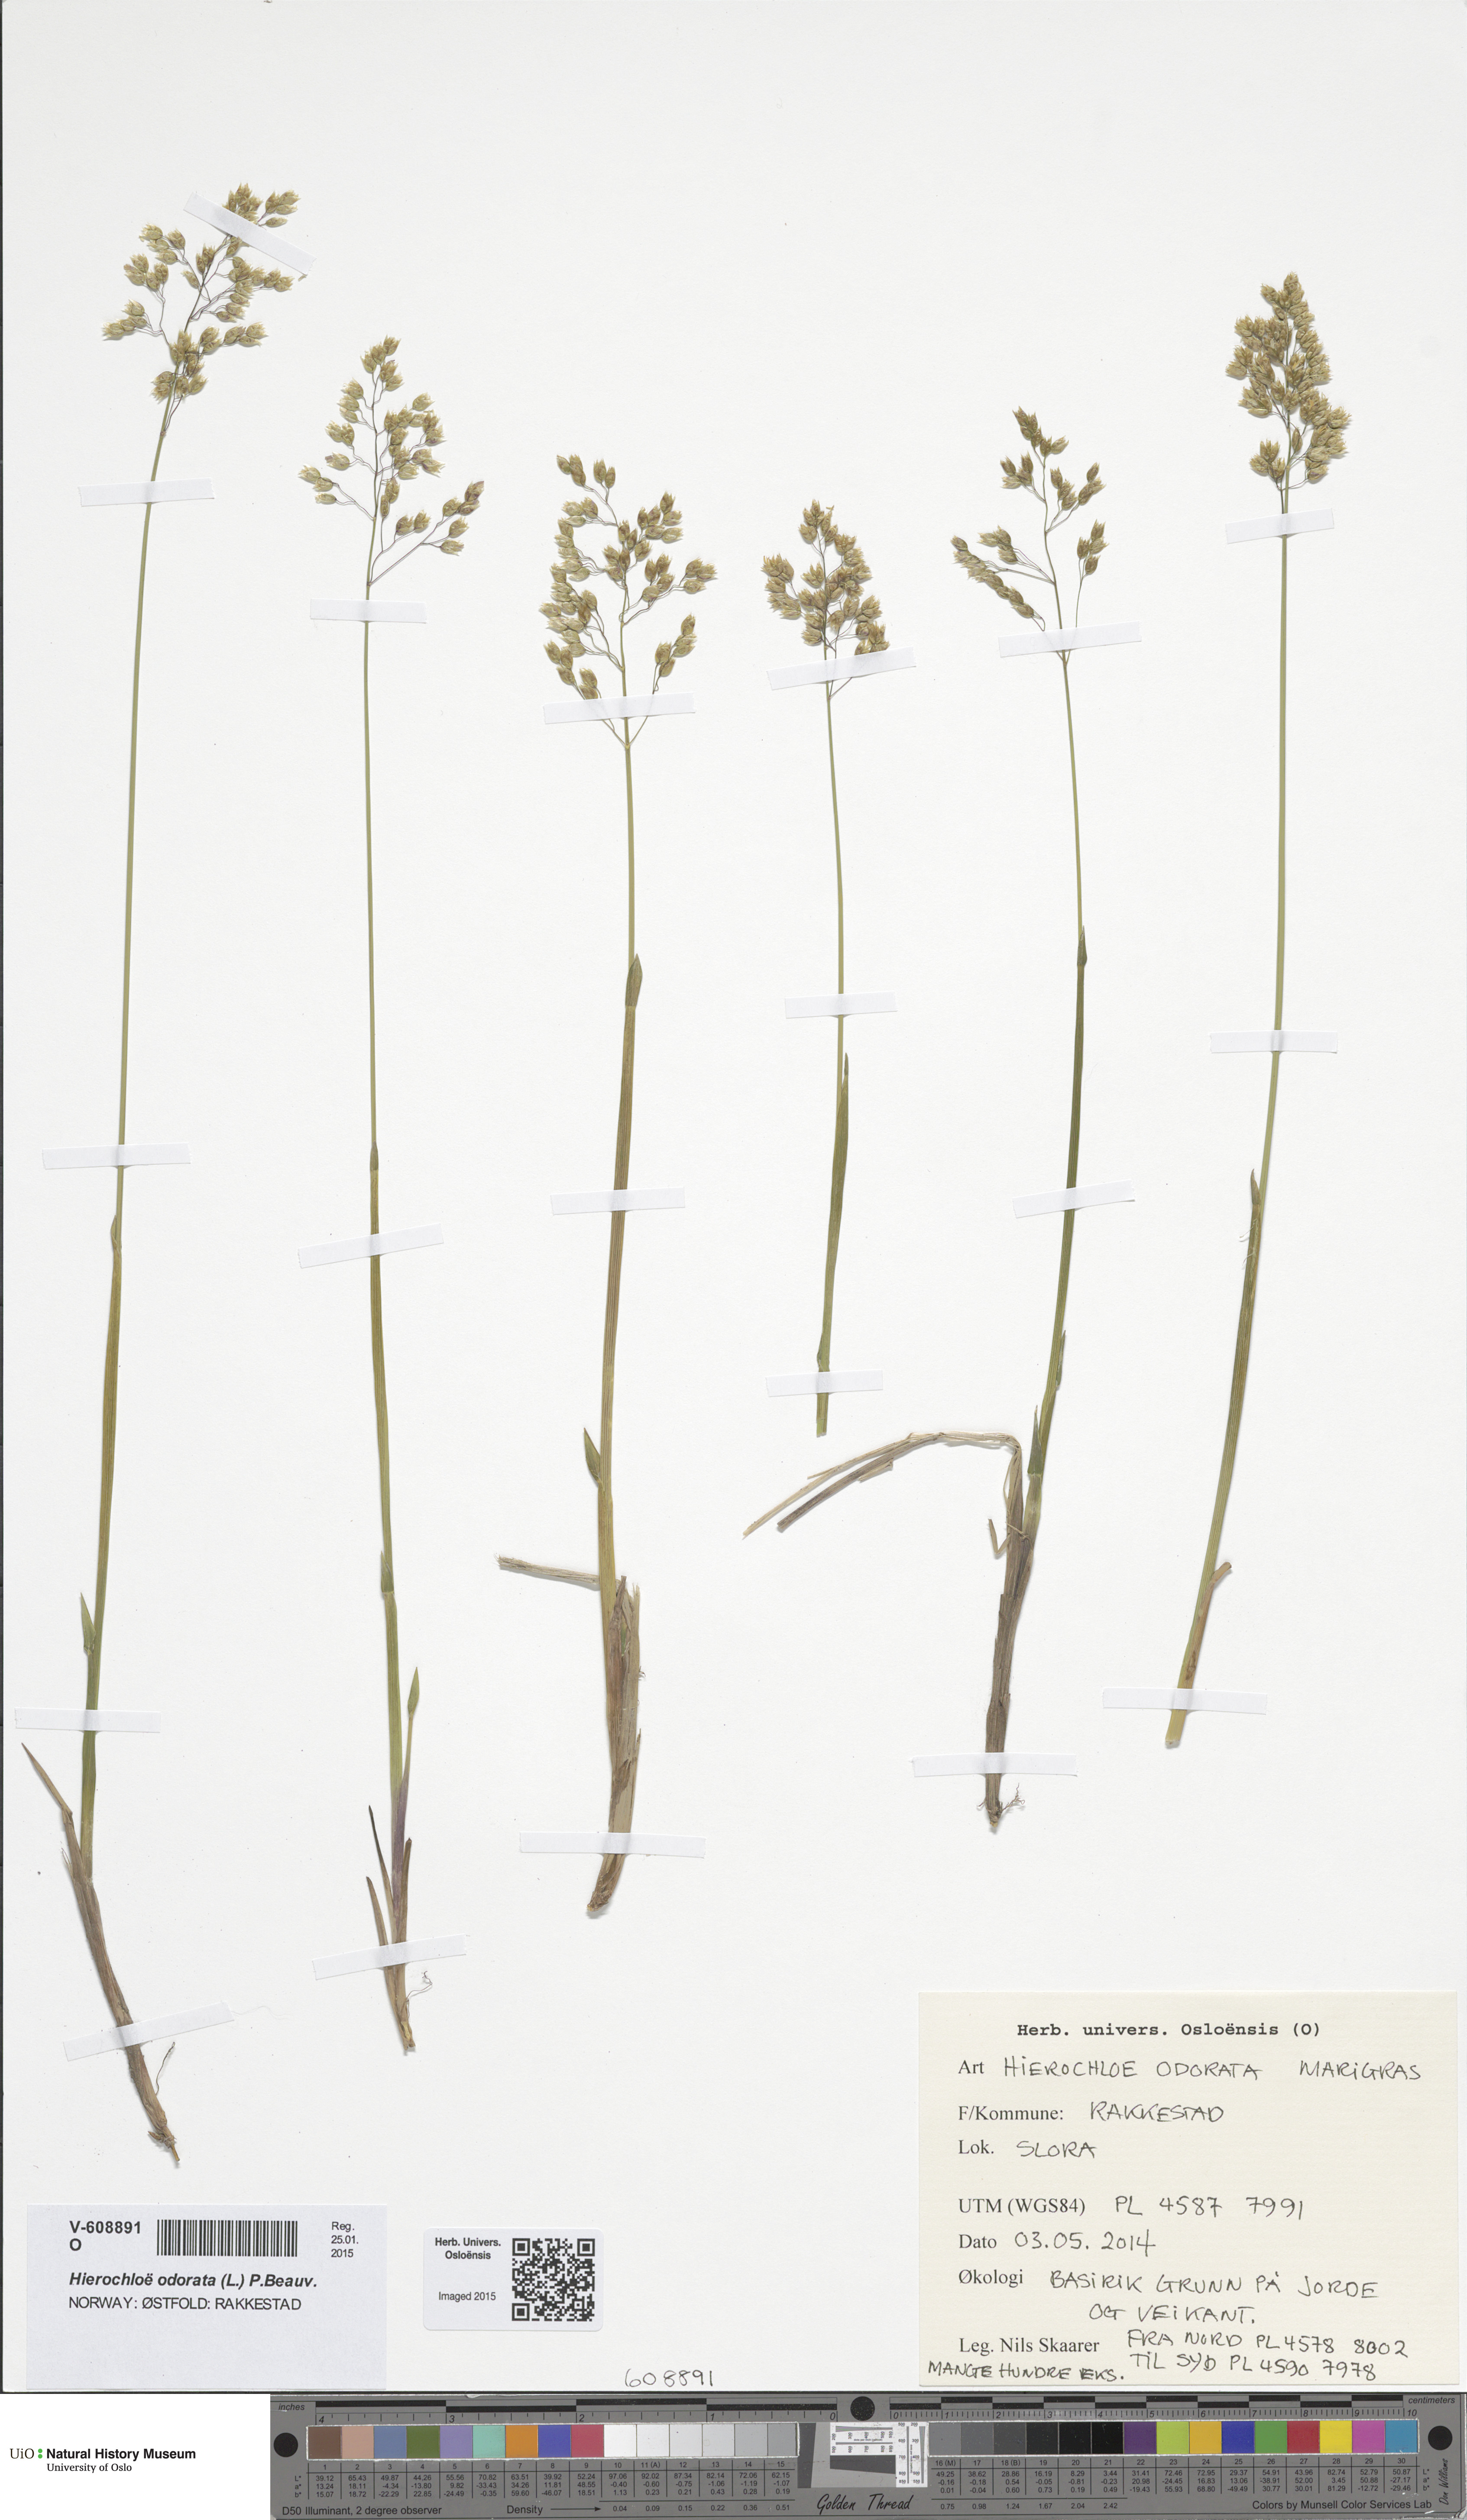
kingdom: Plantae
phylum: Tracheophyta
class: Liliopsida
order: Poales
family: Poaceae
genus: Anthoxanthum
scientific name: Anthoxanthum nitens
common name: Holy grass
